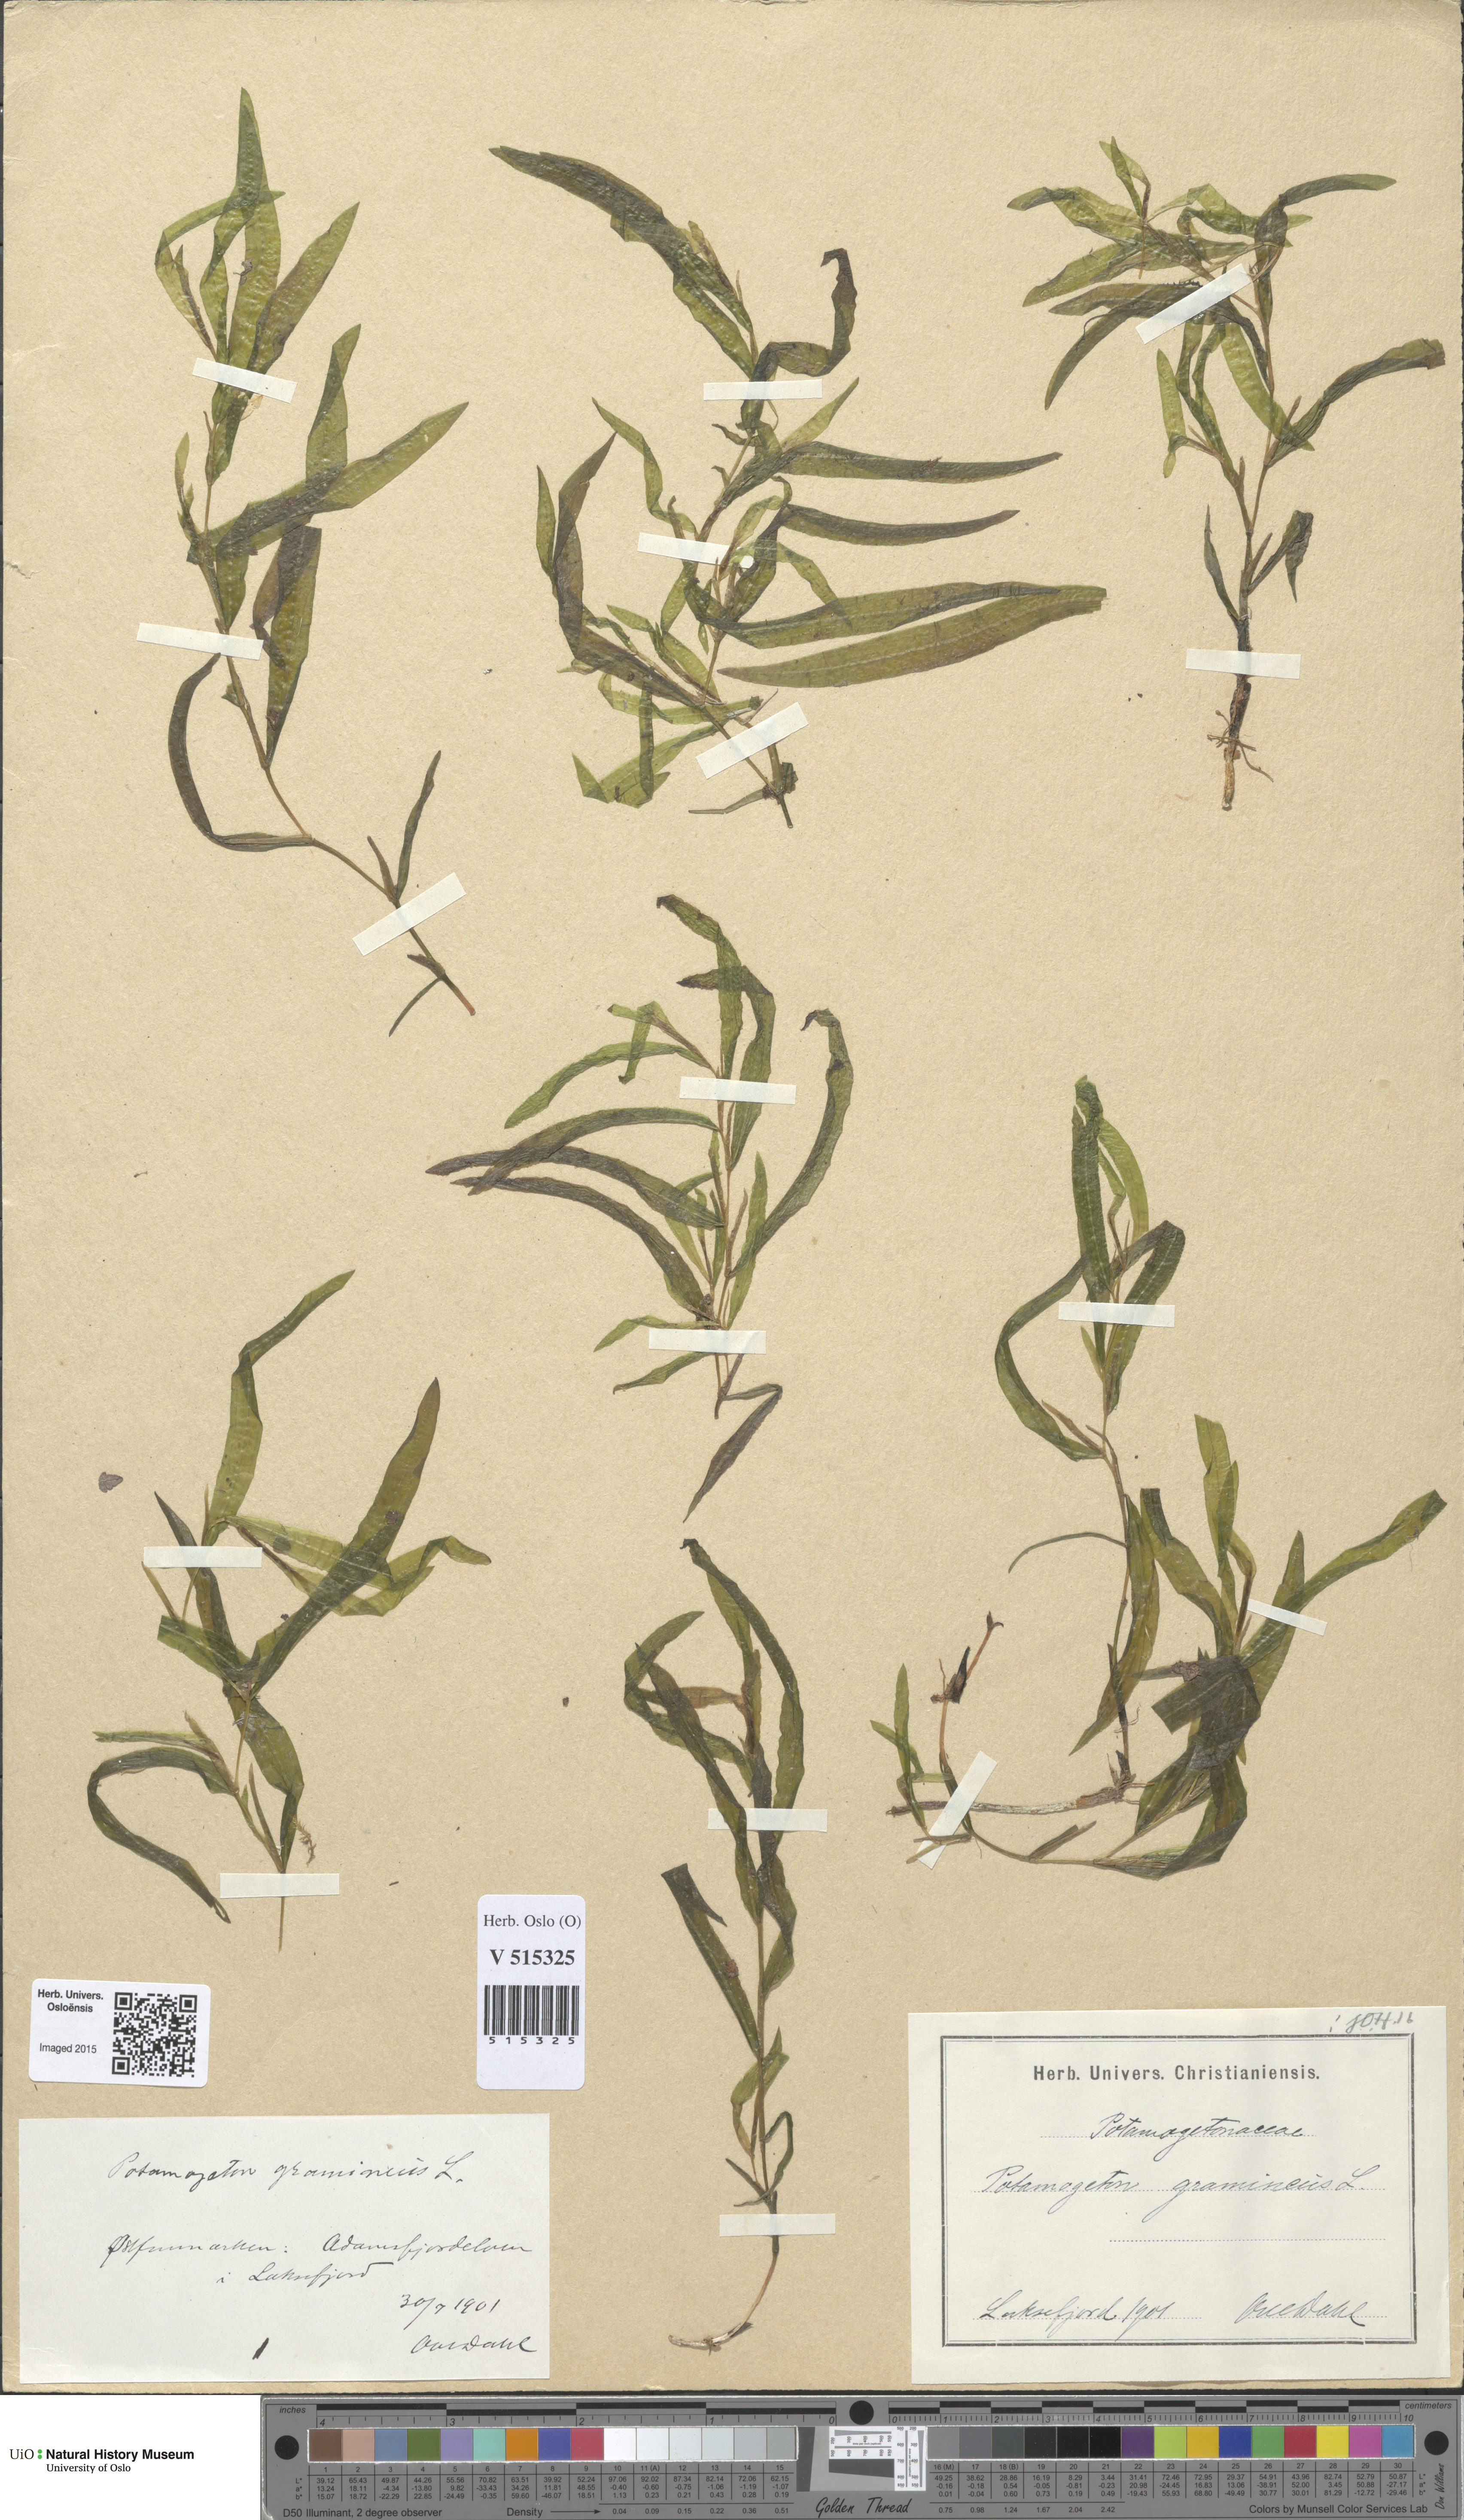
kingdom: Plantae
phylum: Tracheophyta
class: Liliopsida
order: Alismatales
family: Potamogetonaceae
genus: Potamogeton
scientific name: Potamogeton gramineus
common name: Various-leaved pondweed
